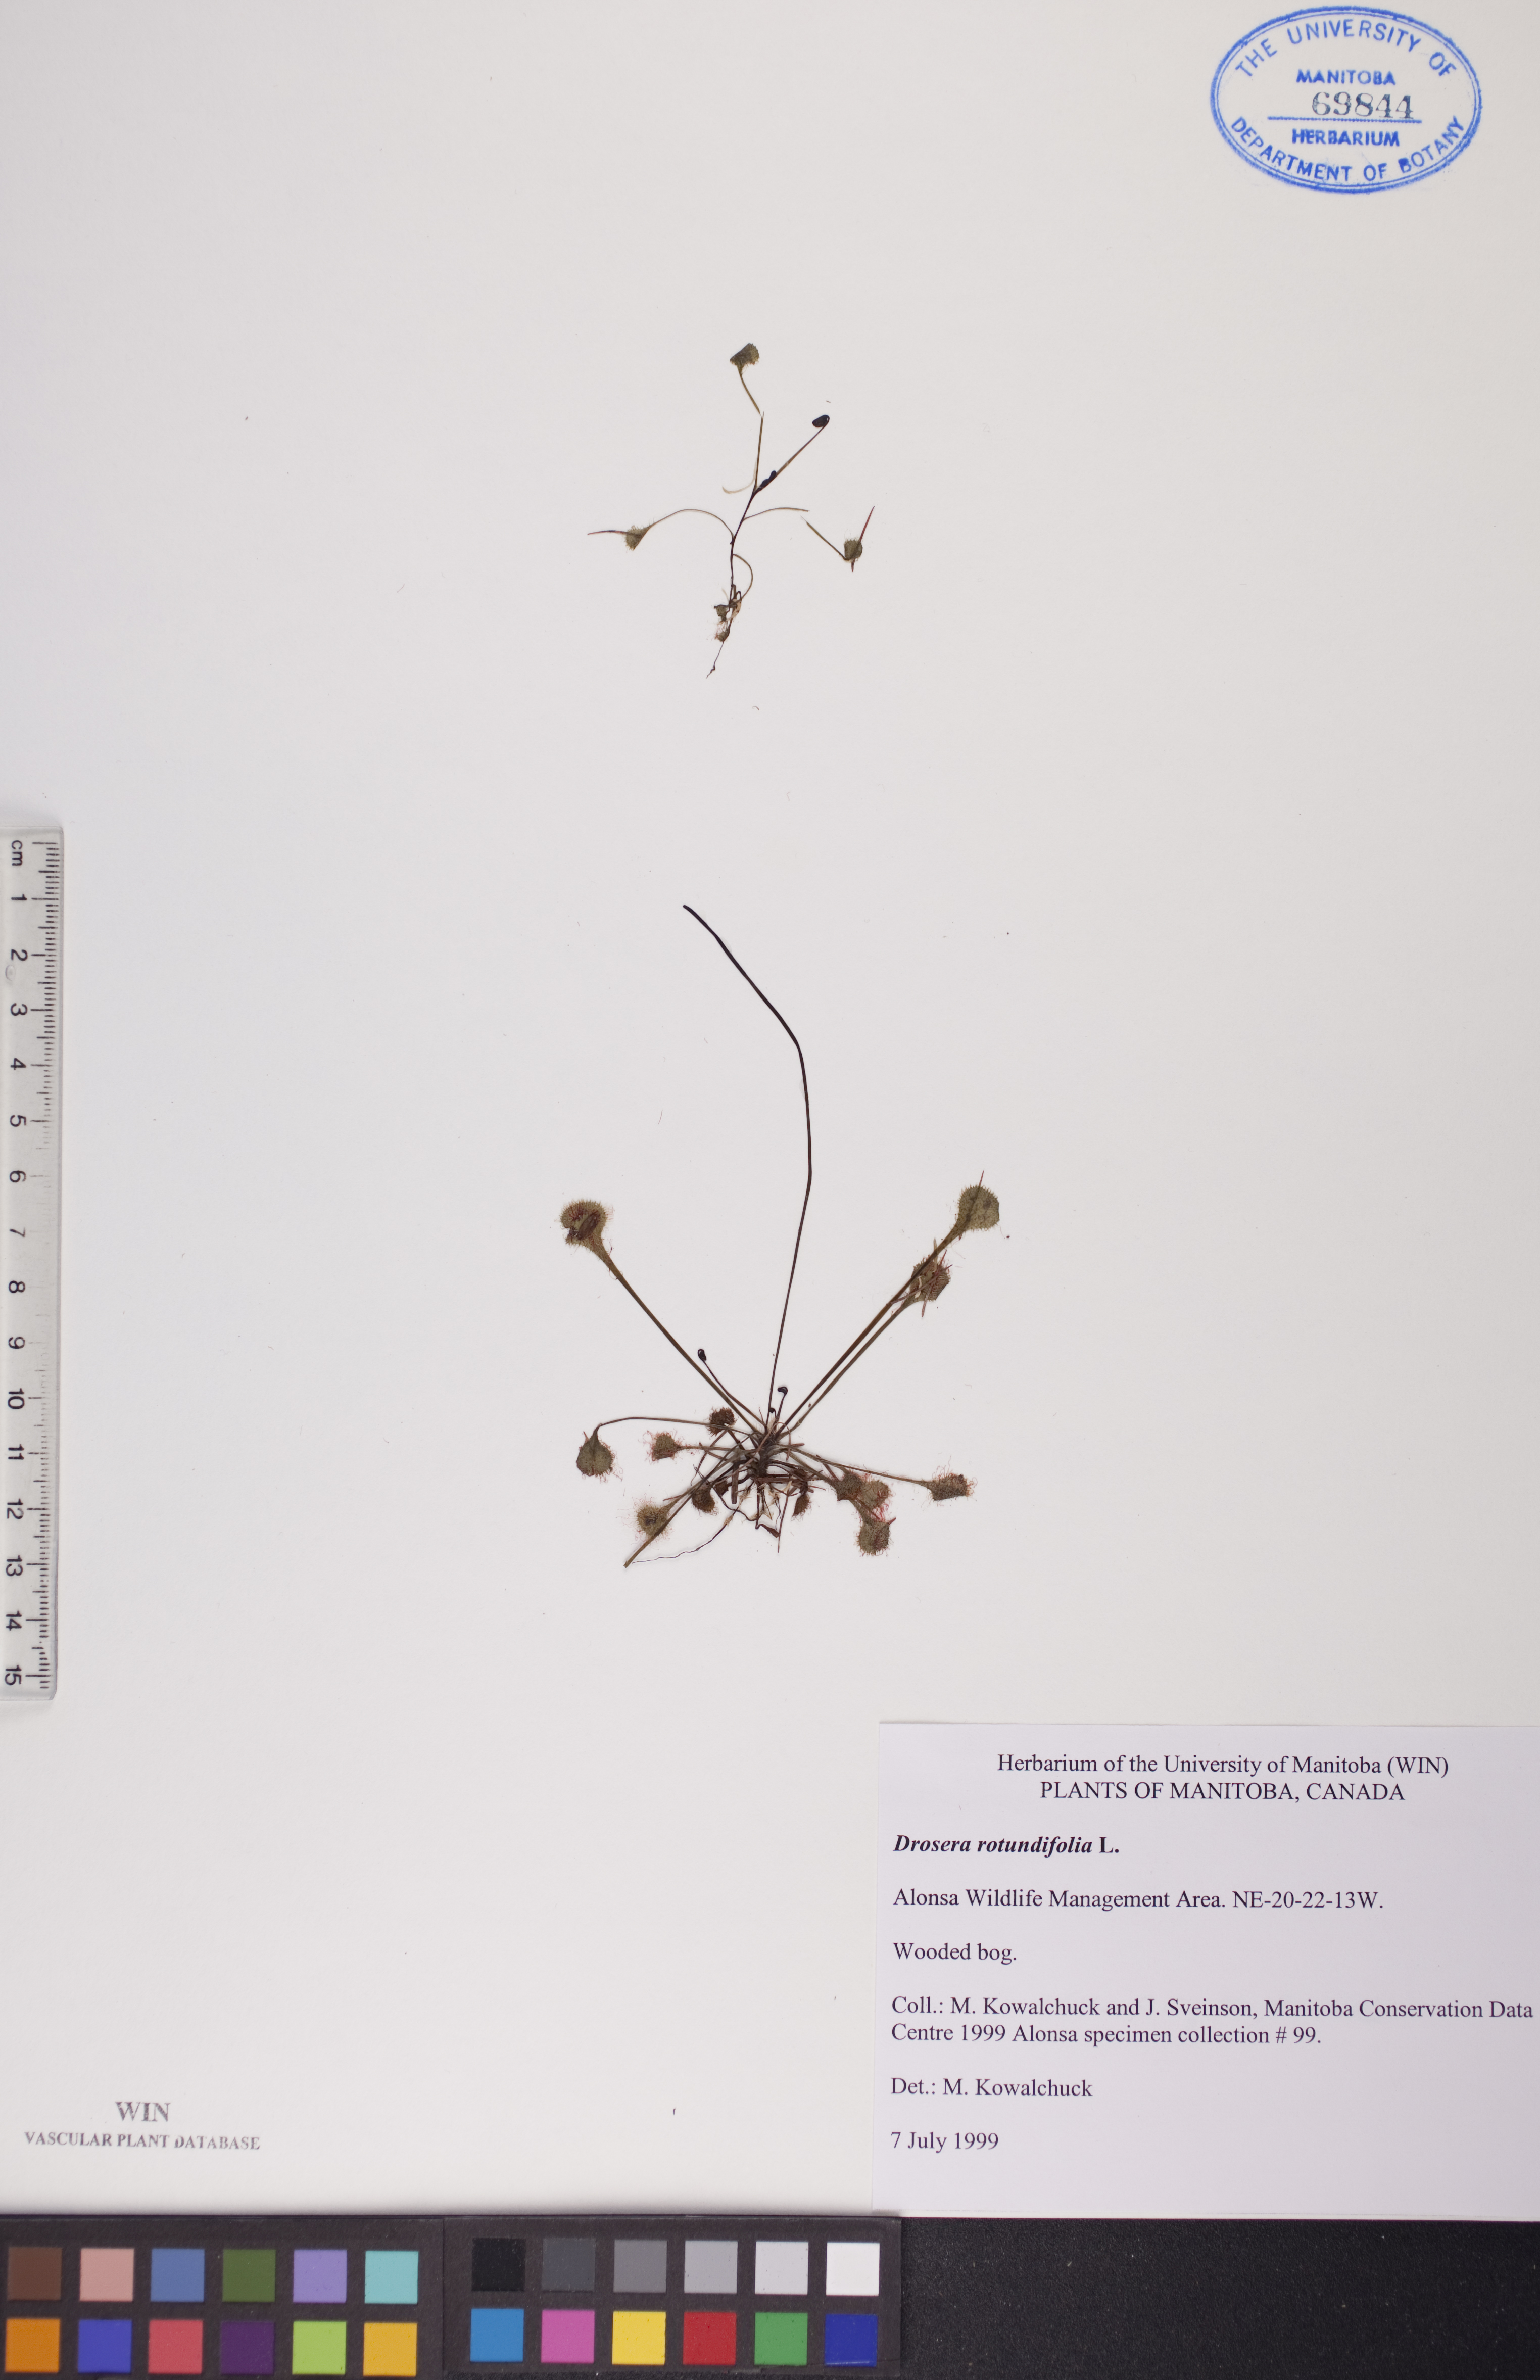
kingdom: Plantae
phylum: Tracheophyta
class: Magnoliopsida
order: Caryophyllales
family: Droseraceae
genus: Drosera
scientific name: Drosera rotundifolia
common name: Round-leaved sundew
